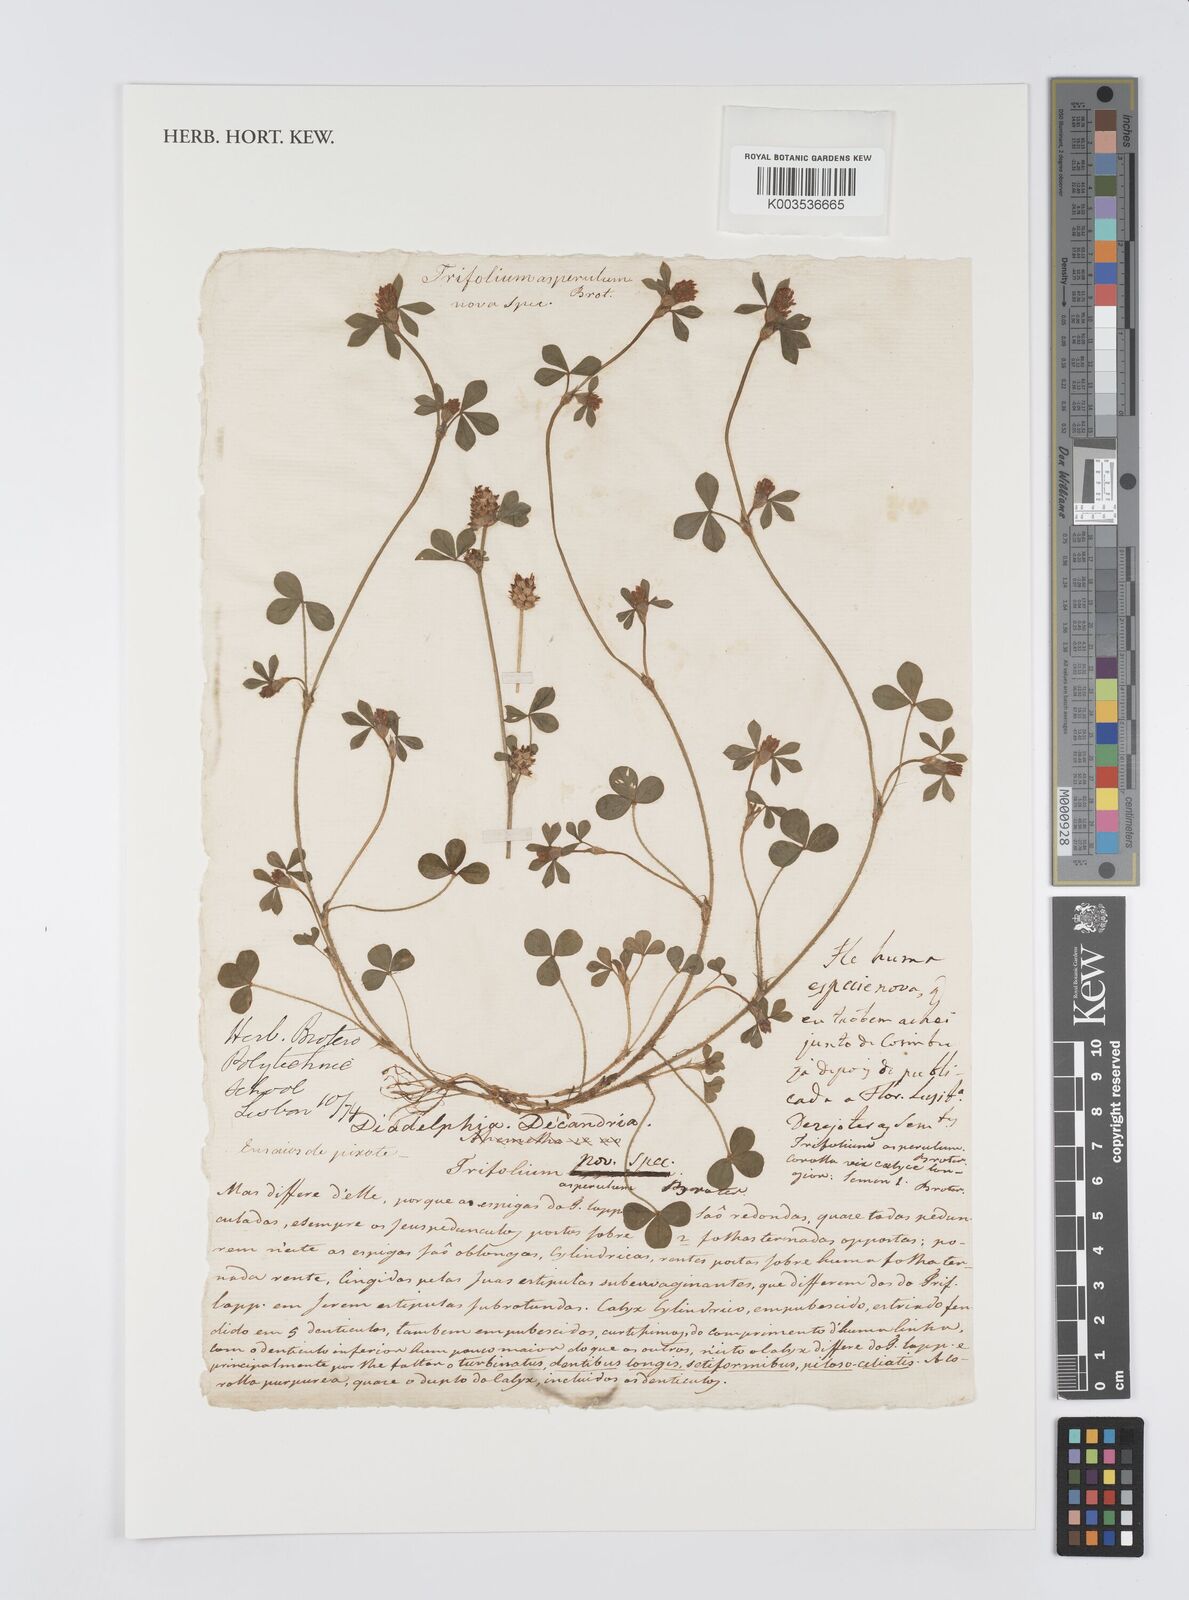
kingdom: Plantae
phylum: Tracheophyta
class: Magnoliopsida
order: Fabales
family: Fabaceae
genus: Trifolium
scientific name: Trifolium striatum
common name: Knotted clover
